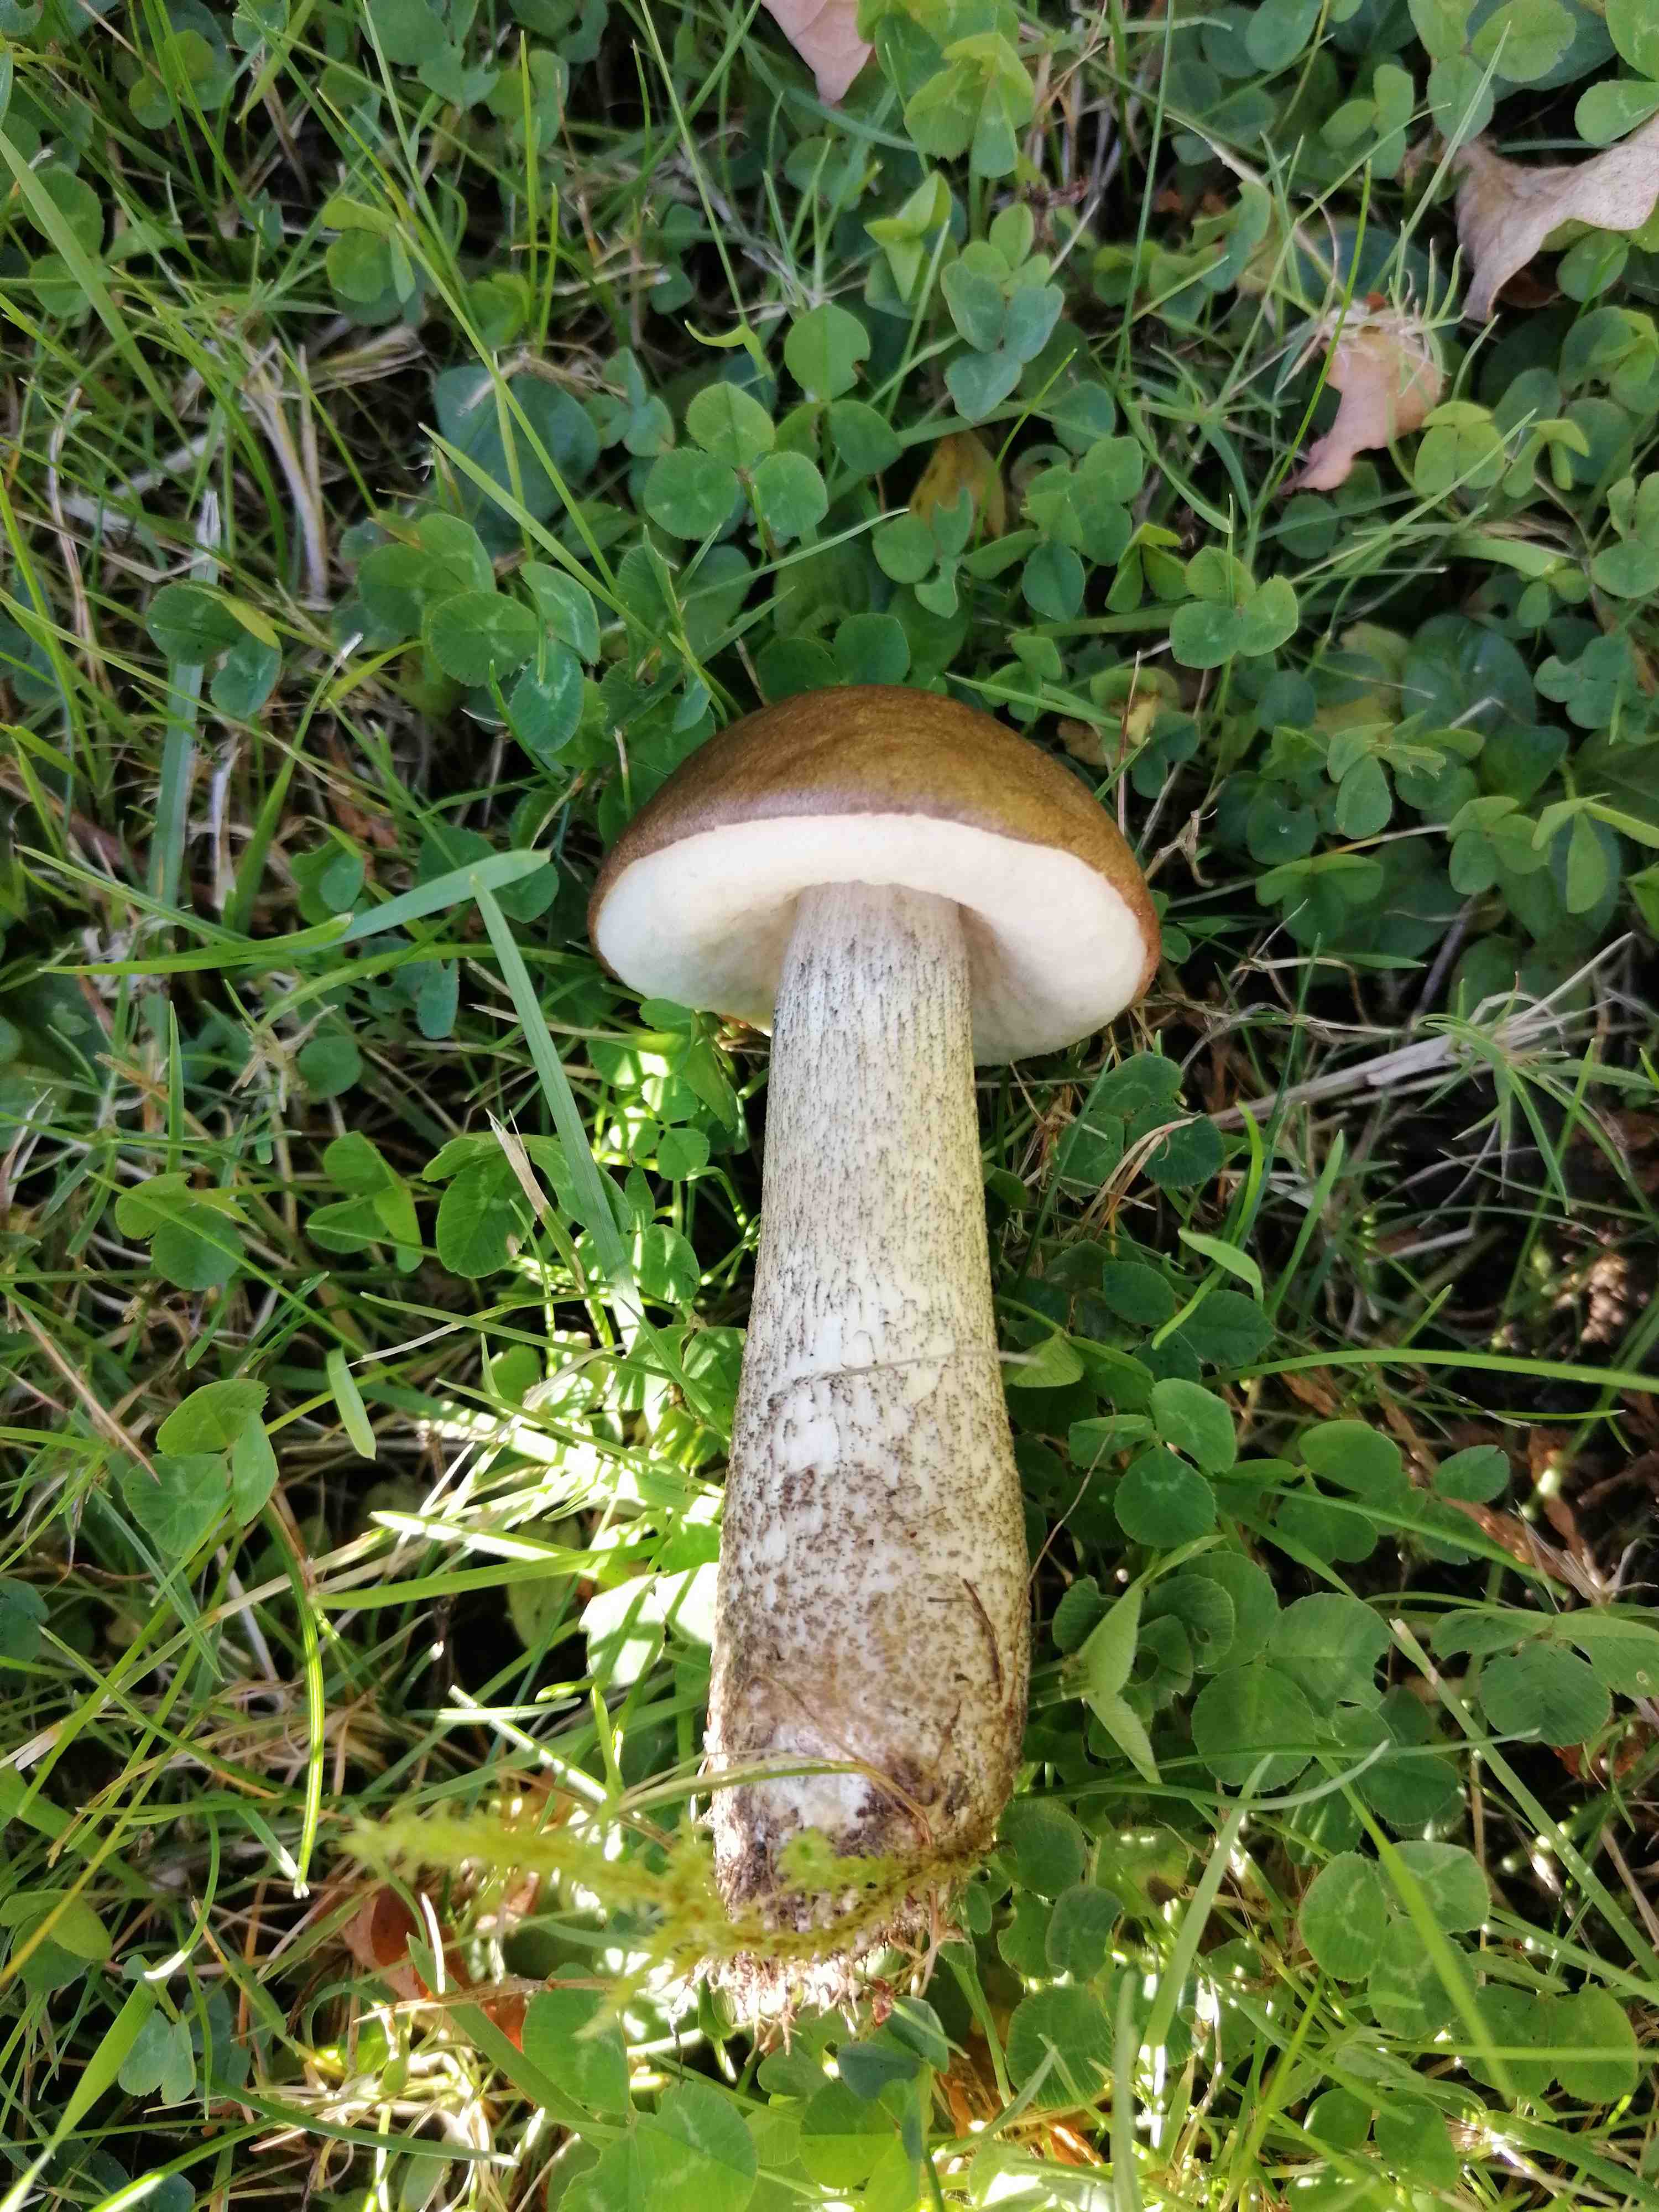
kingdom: Fungi
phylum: Basidiomycota
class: Agaricomycetes
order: Boletales
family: Boletaceae
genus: Leccinum
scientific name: Leccinum scabrum
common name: brun skælrørhat
